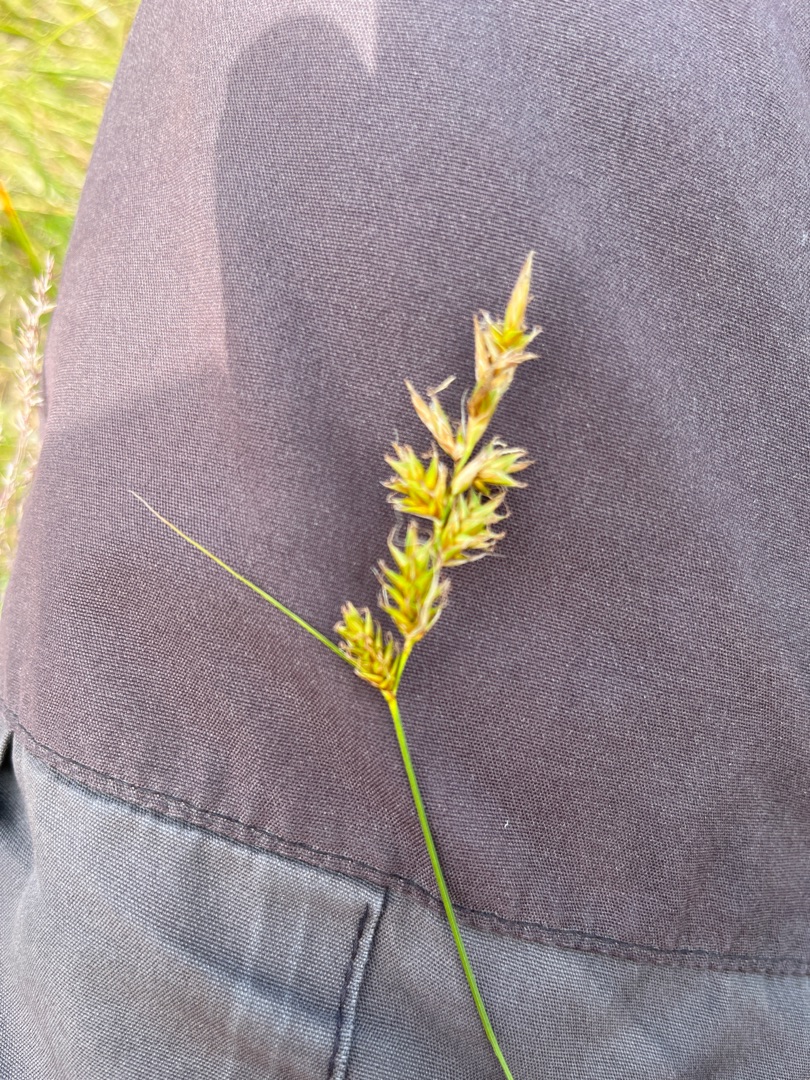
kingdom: Plantae
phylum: Tracheophyta
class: Liliopsida
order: Poales
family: Cyperaceae
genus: Carex
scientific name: Carex arenaria
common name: Sand-star
